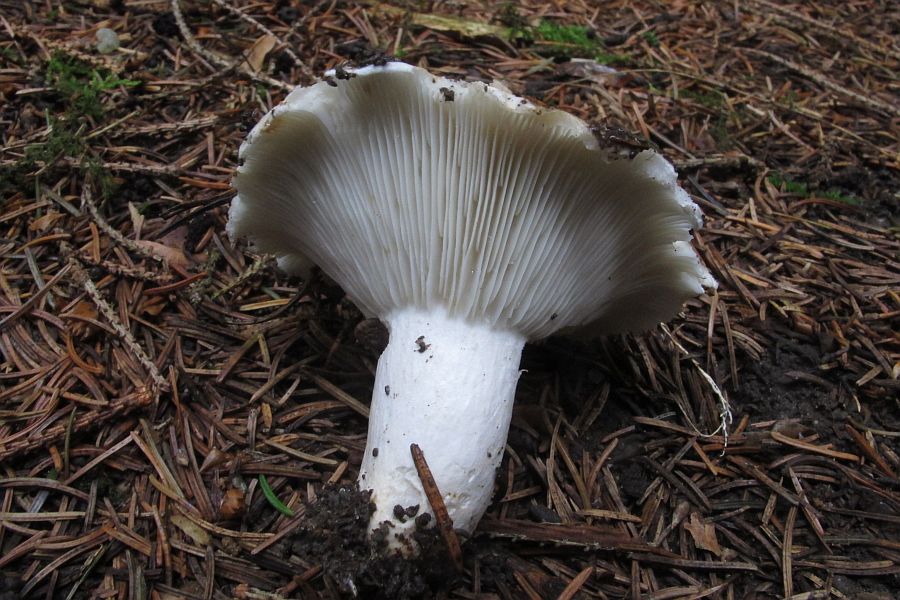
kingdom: Fungi
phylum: Basidiomycota
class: Agaricomycetes
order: Russulales
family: Russulaceae
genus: Russula
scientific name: Russula chloroides
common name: grønhalset tragt-skørhat
